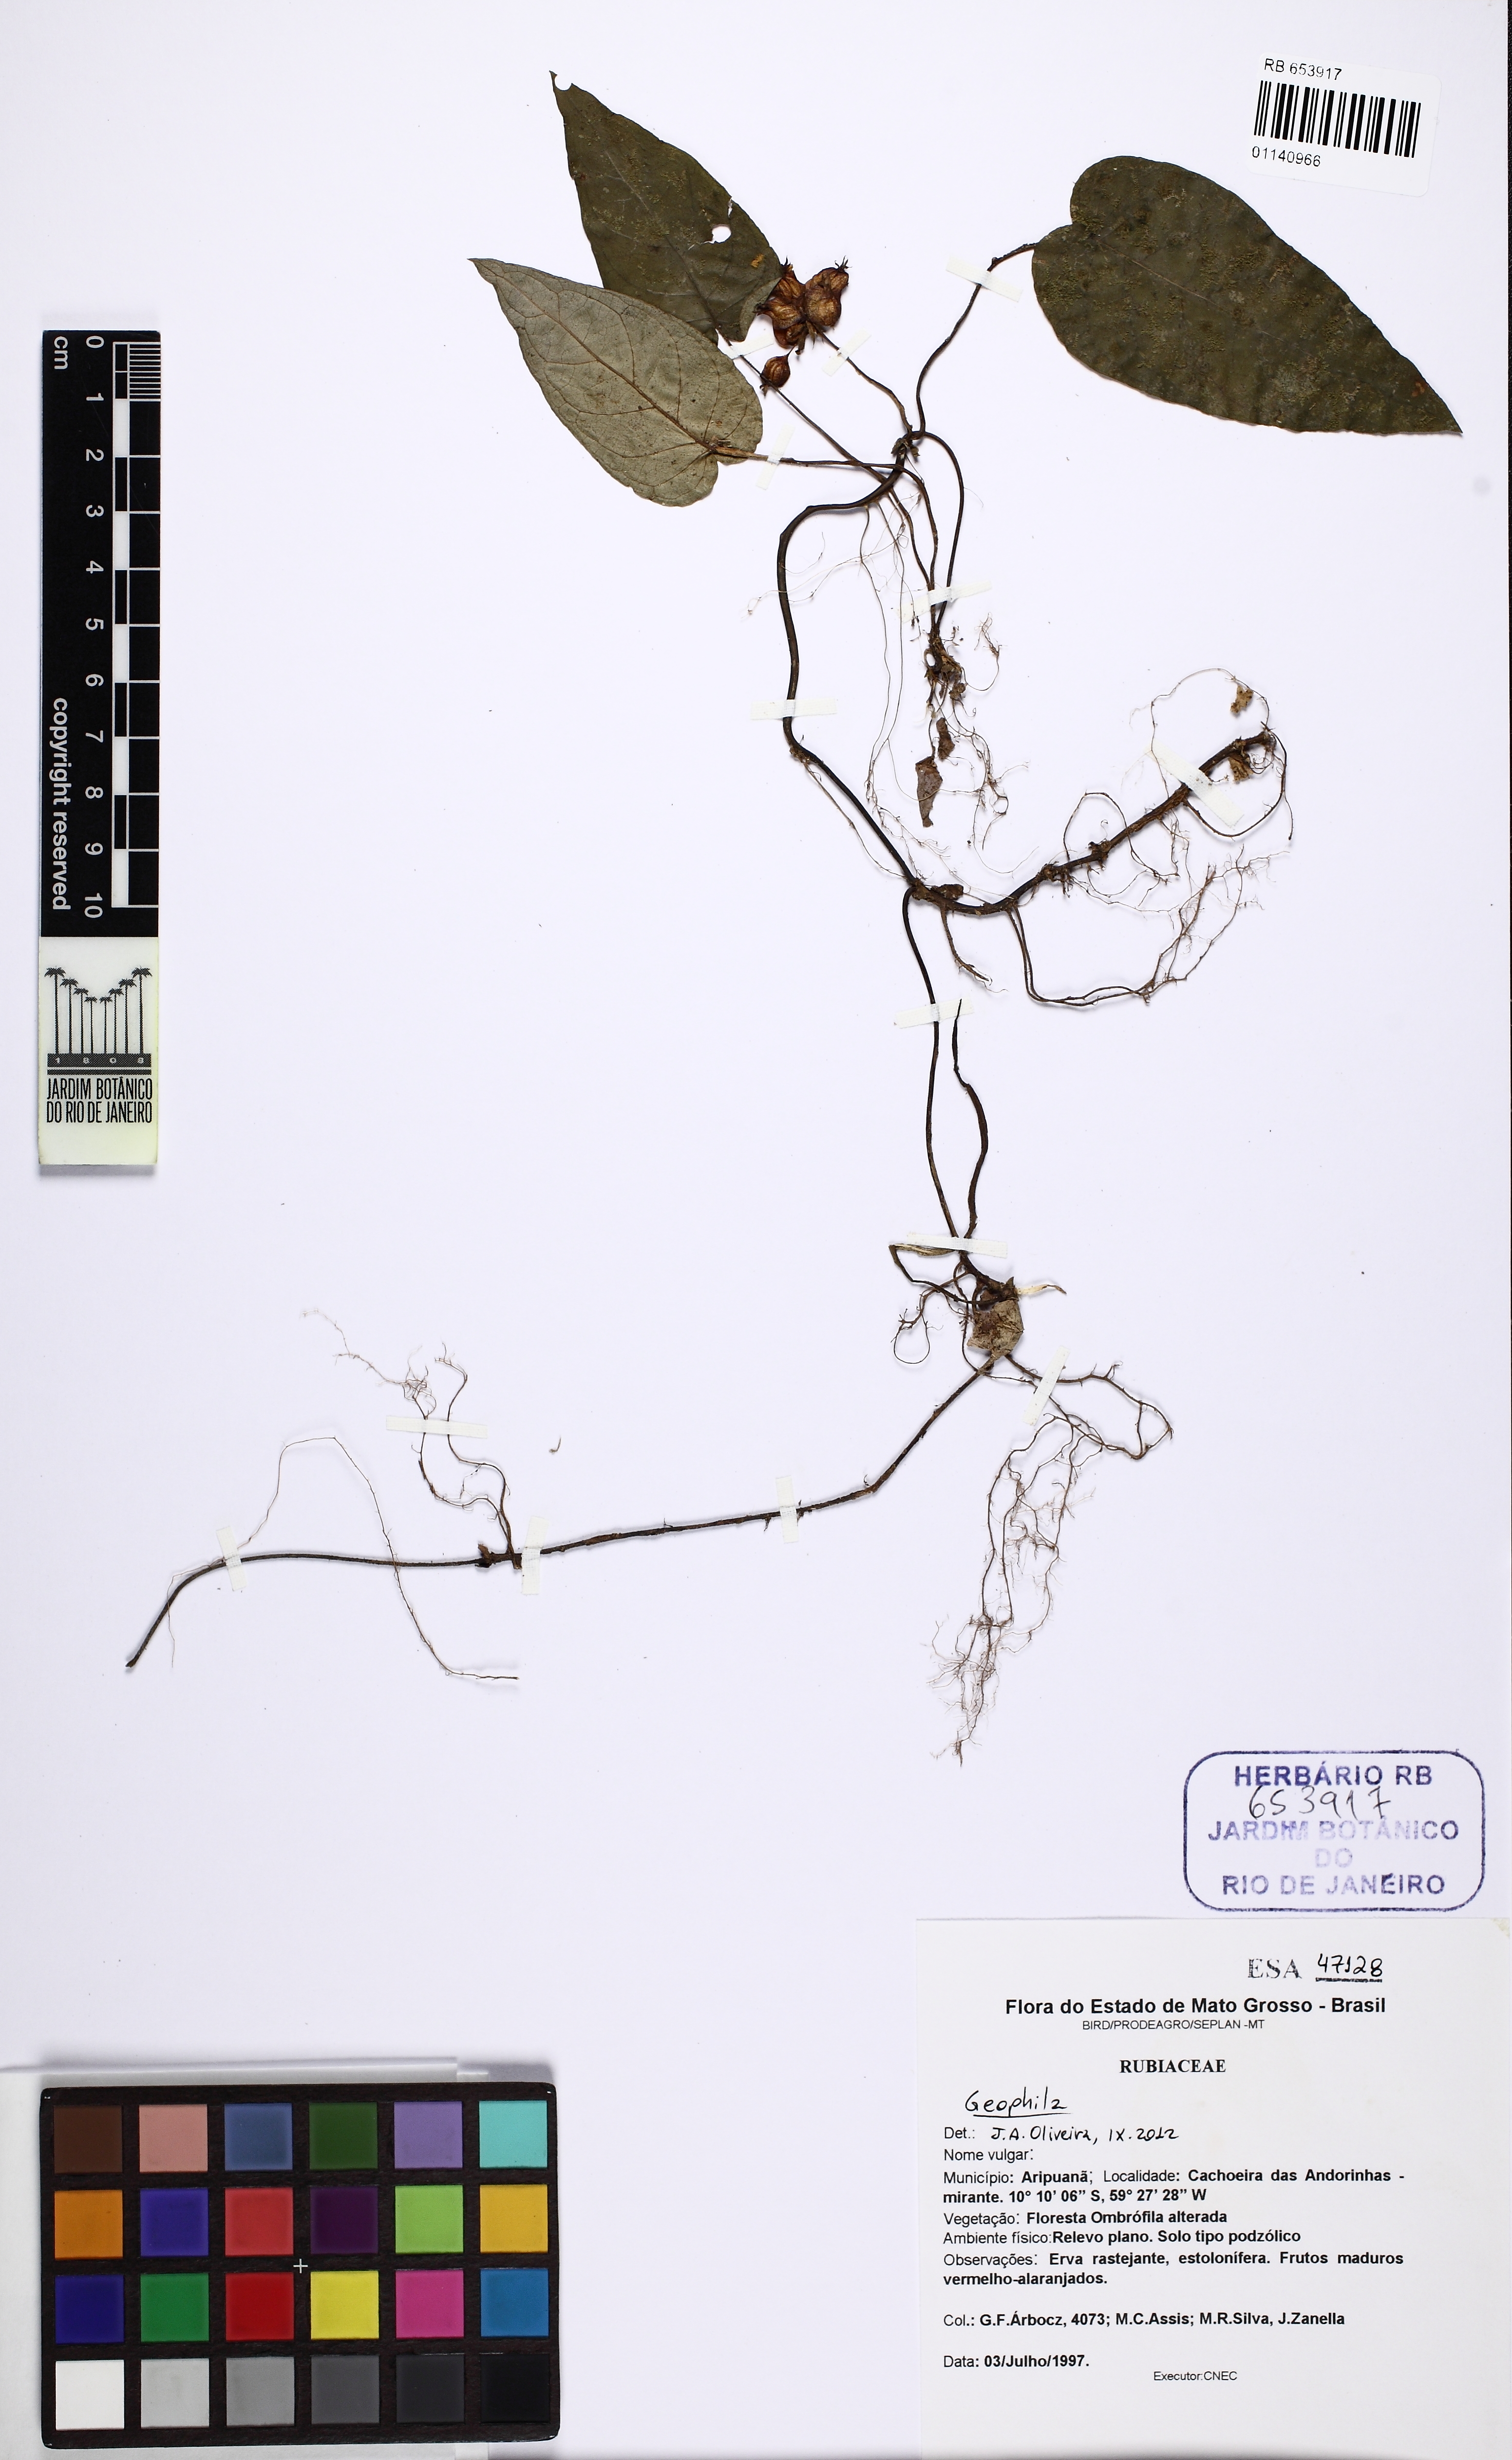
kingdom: Plantae
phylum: Tracheophyta
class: Magnoliopsida
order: Gentianales
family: Rubiaceae
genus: Geophila
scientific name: Geophila
